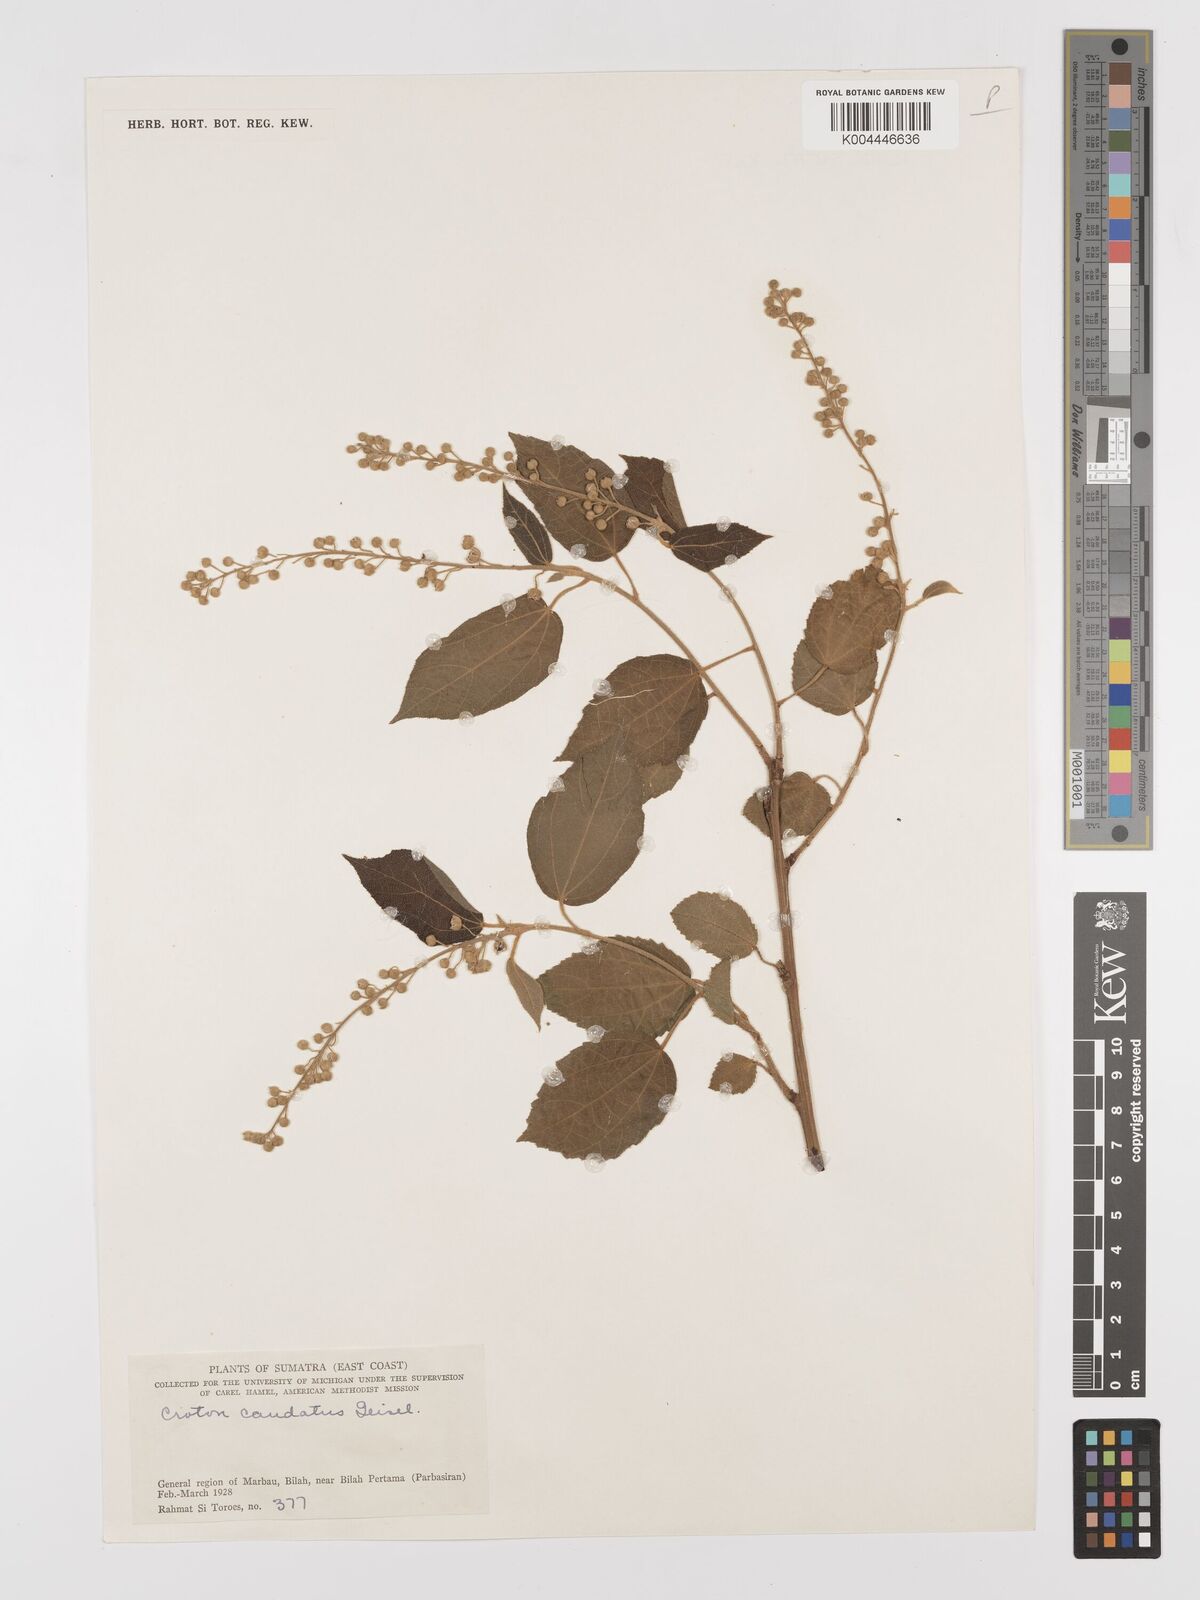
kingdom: Plantae
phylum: Tracheophyta
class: Magnoliopsida
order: Malpighiales
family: Euphorbiaceae
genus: Croton
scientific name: Croton caudatus
